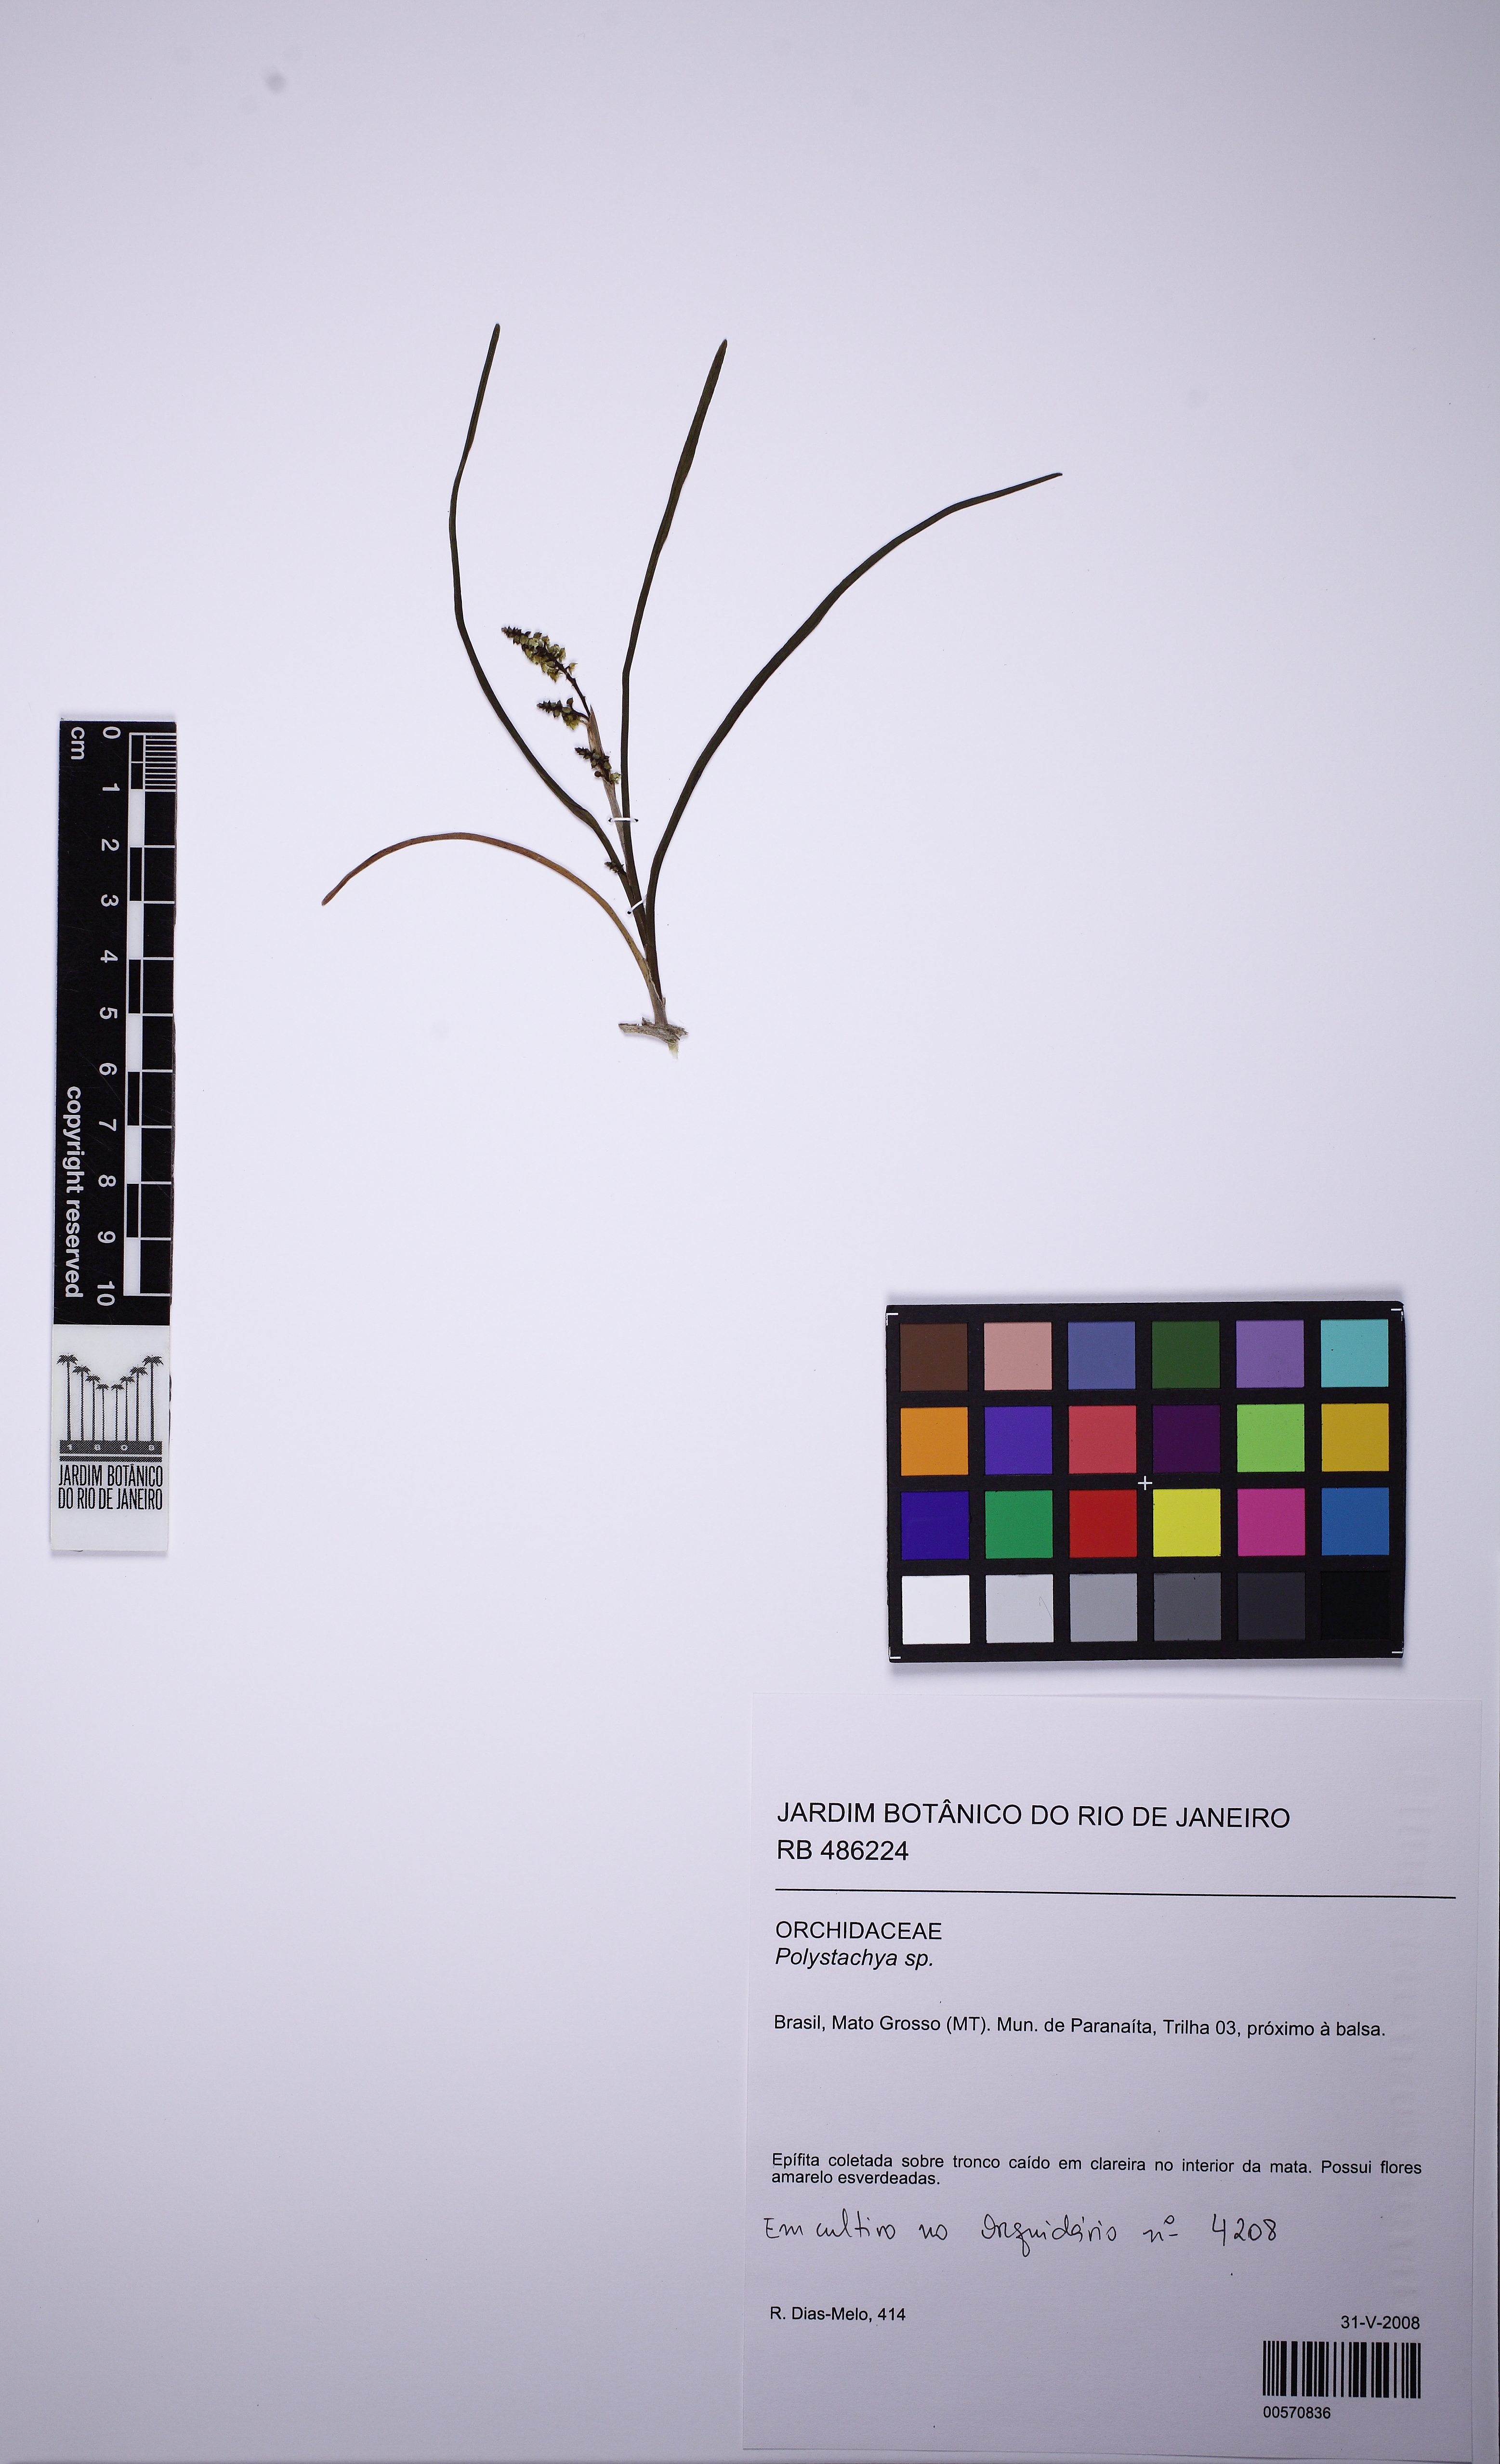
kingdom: Plantae
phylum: Tracheophyta
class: Liliopsida
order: Asparagales
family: Orchidaceae
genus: Polystachya
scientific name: Polystachya
